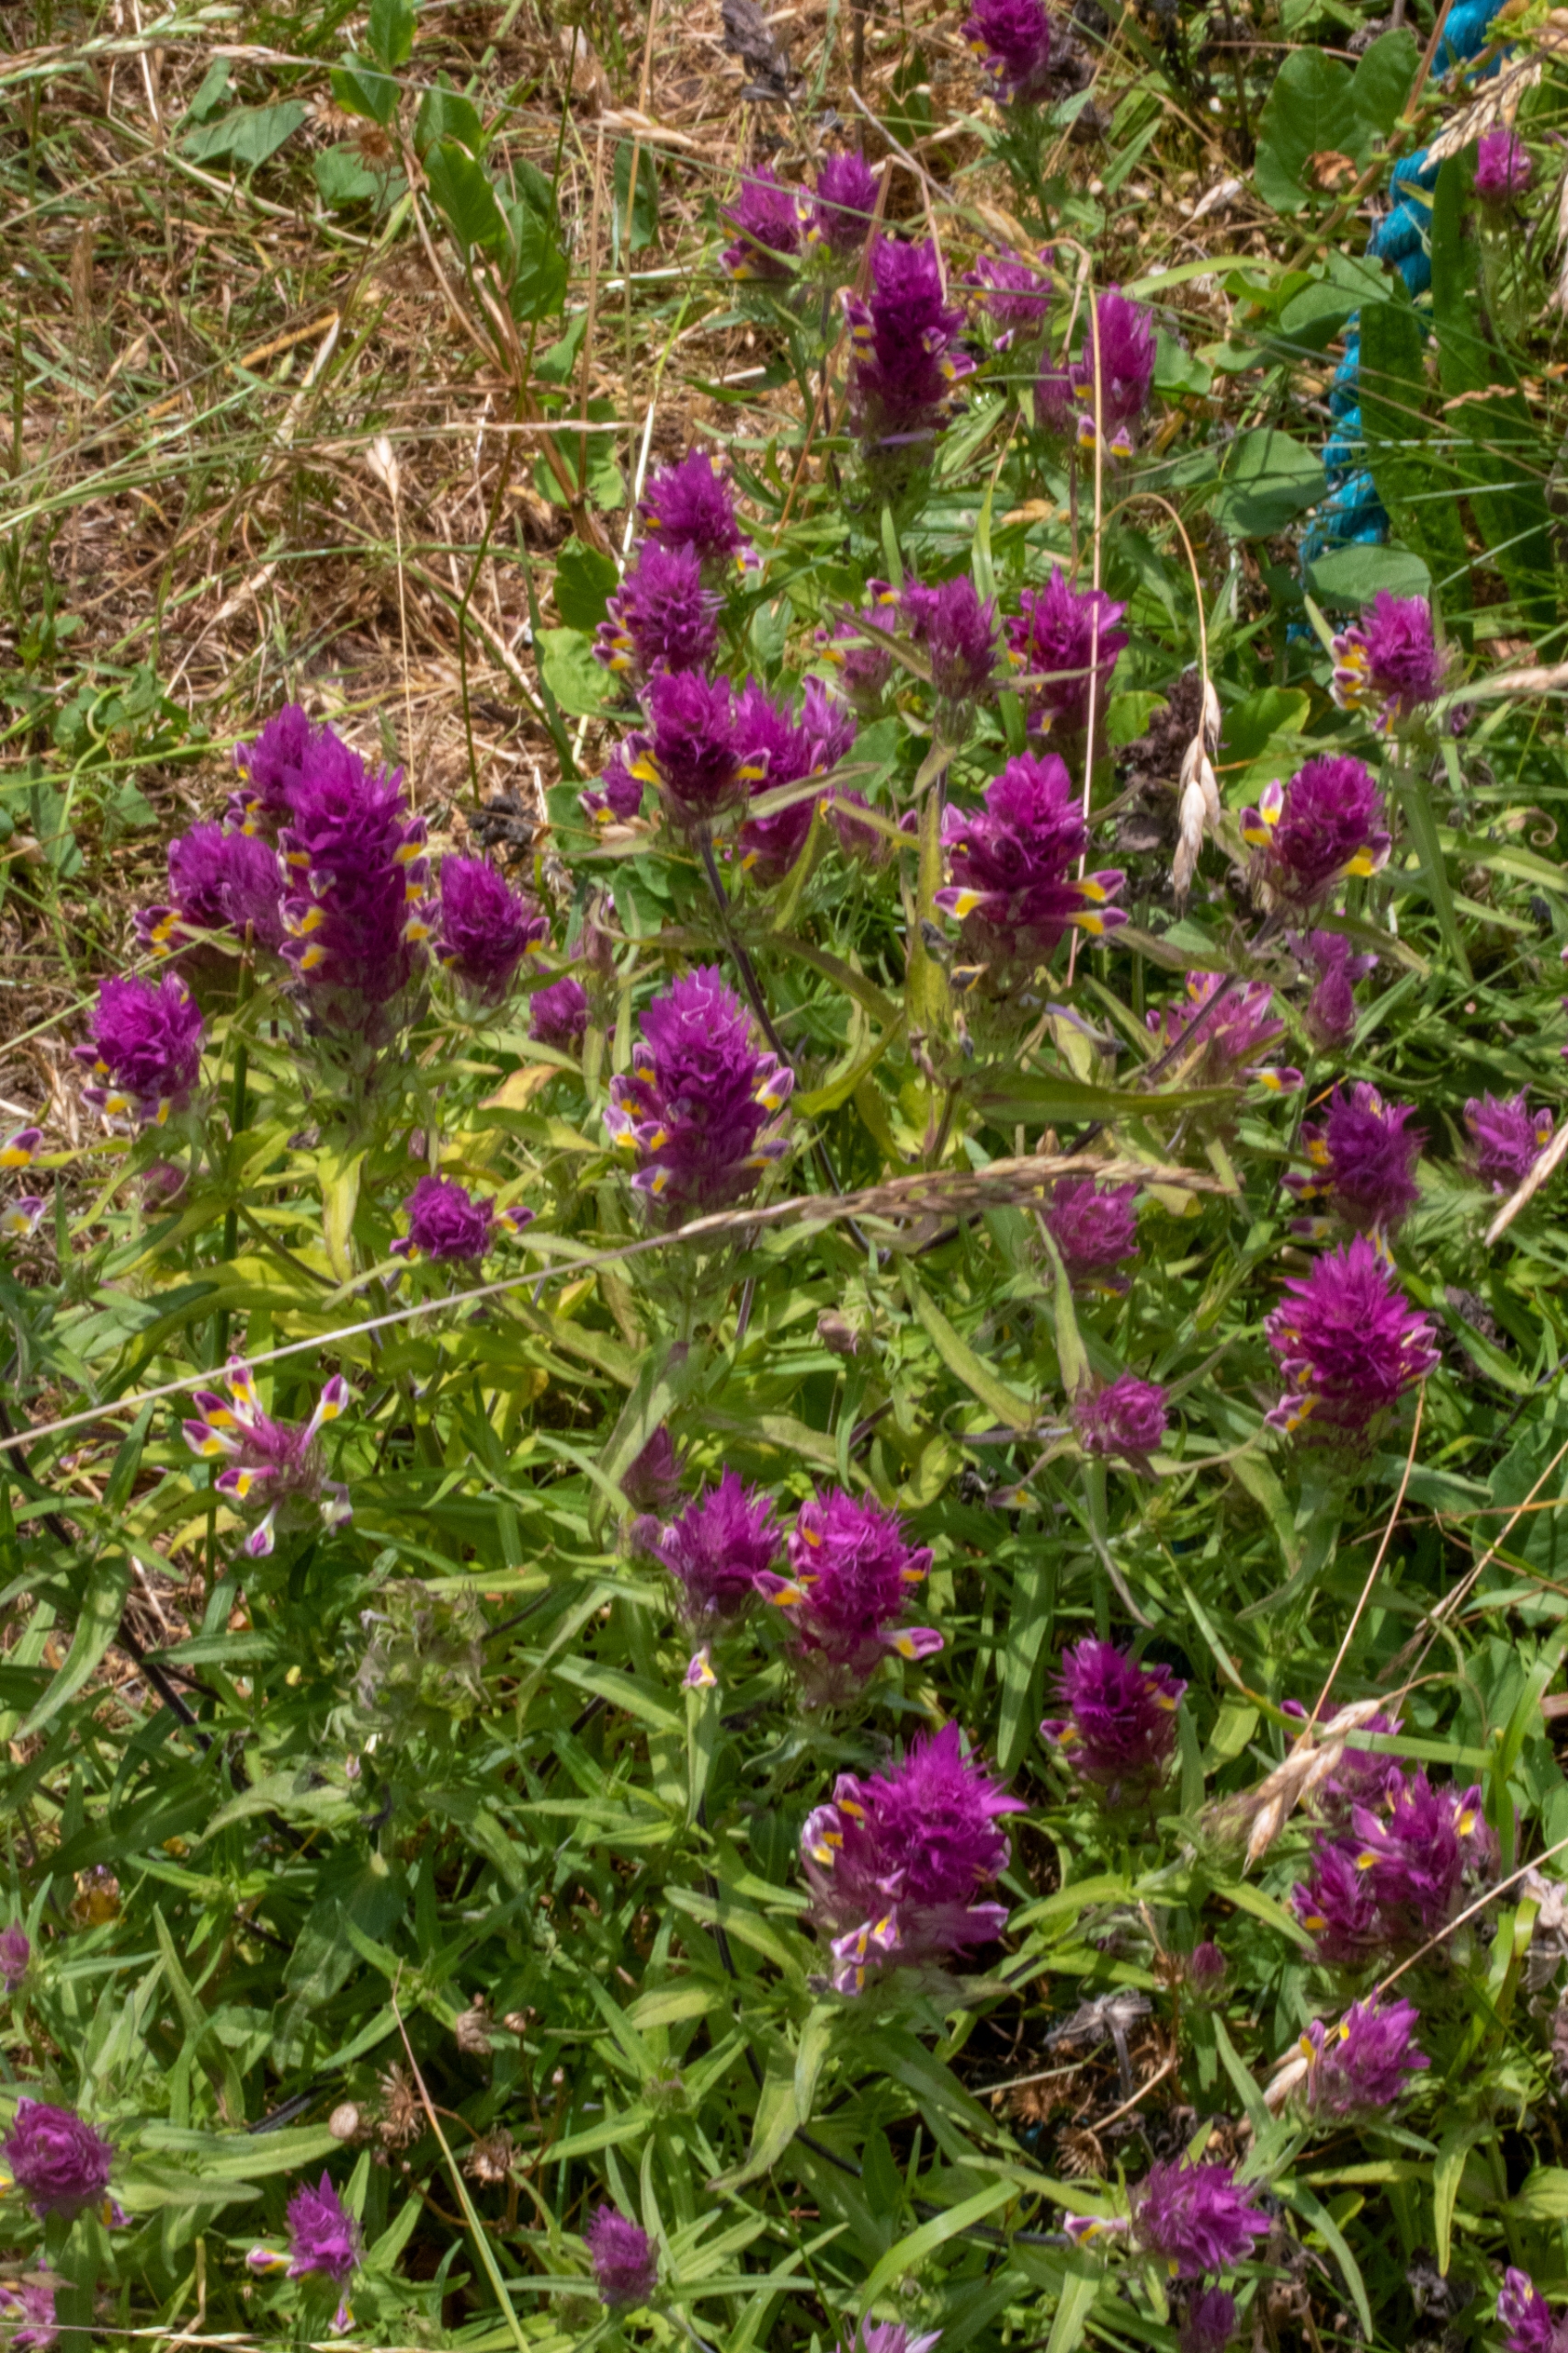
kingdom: Plantae
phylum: Tracheophyta
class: Magnoliopsida
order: Lamiales
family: Orobanchaceae
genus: Melampyrum
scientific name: Melampyrum arvense
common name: Ager-kohvede
